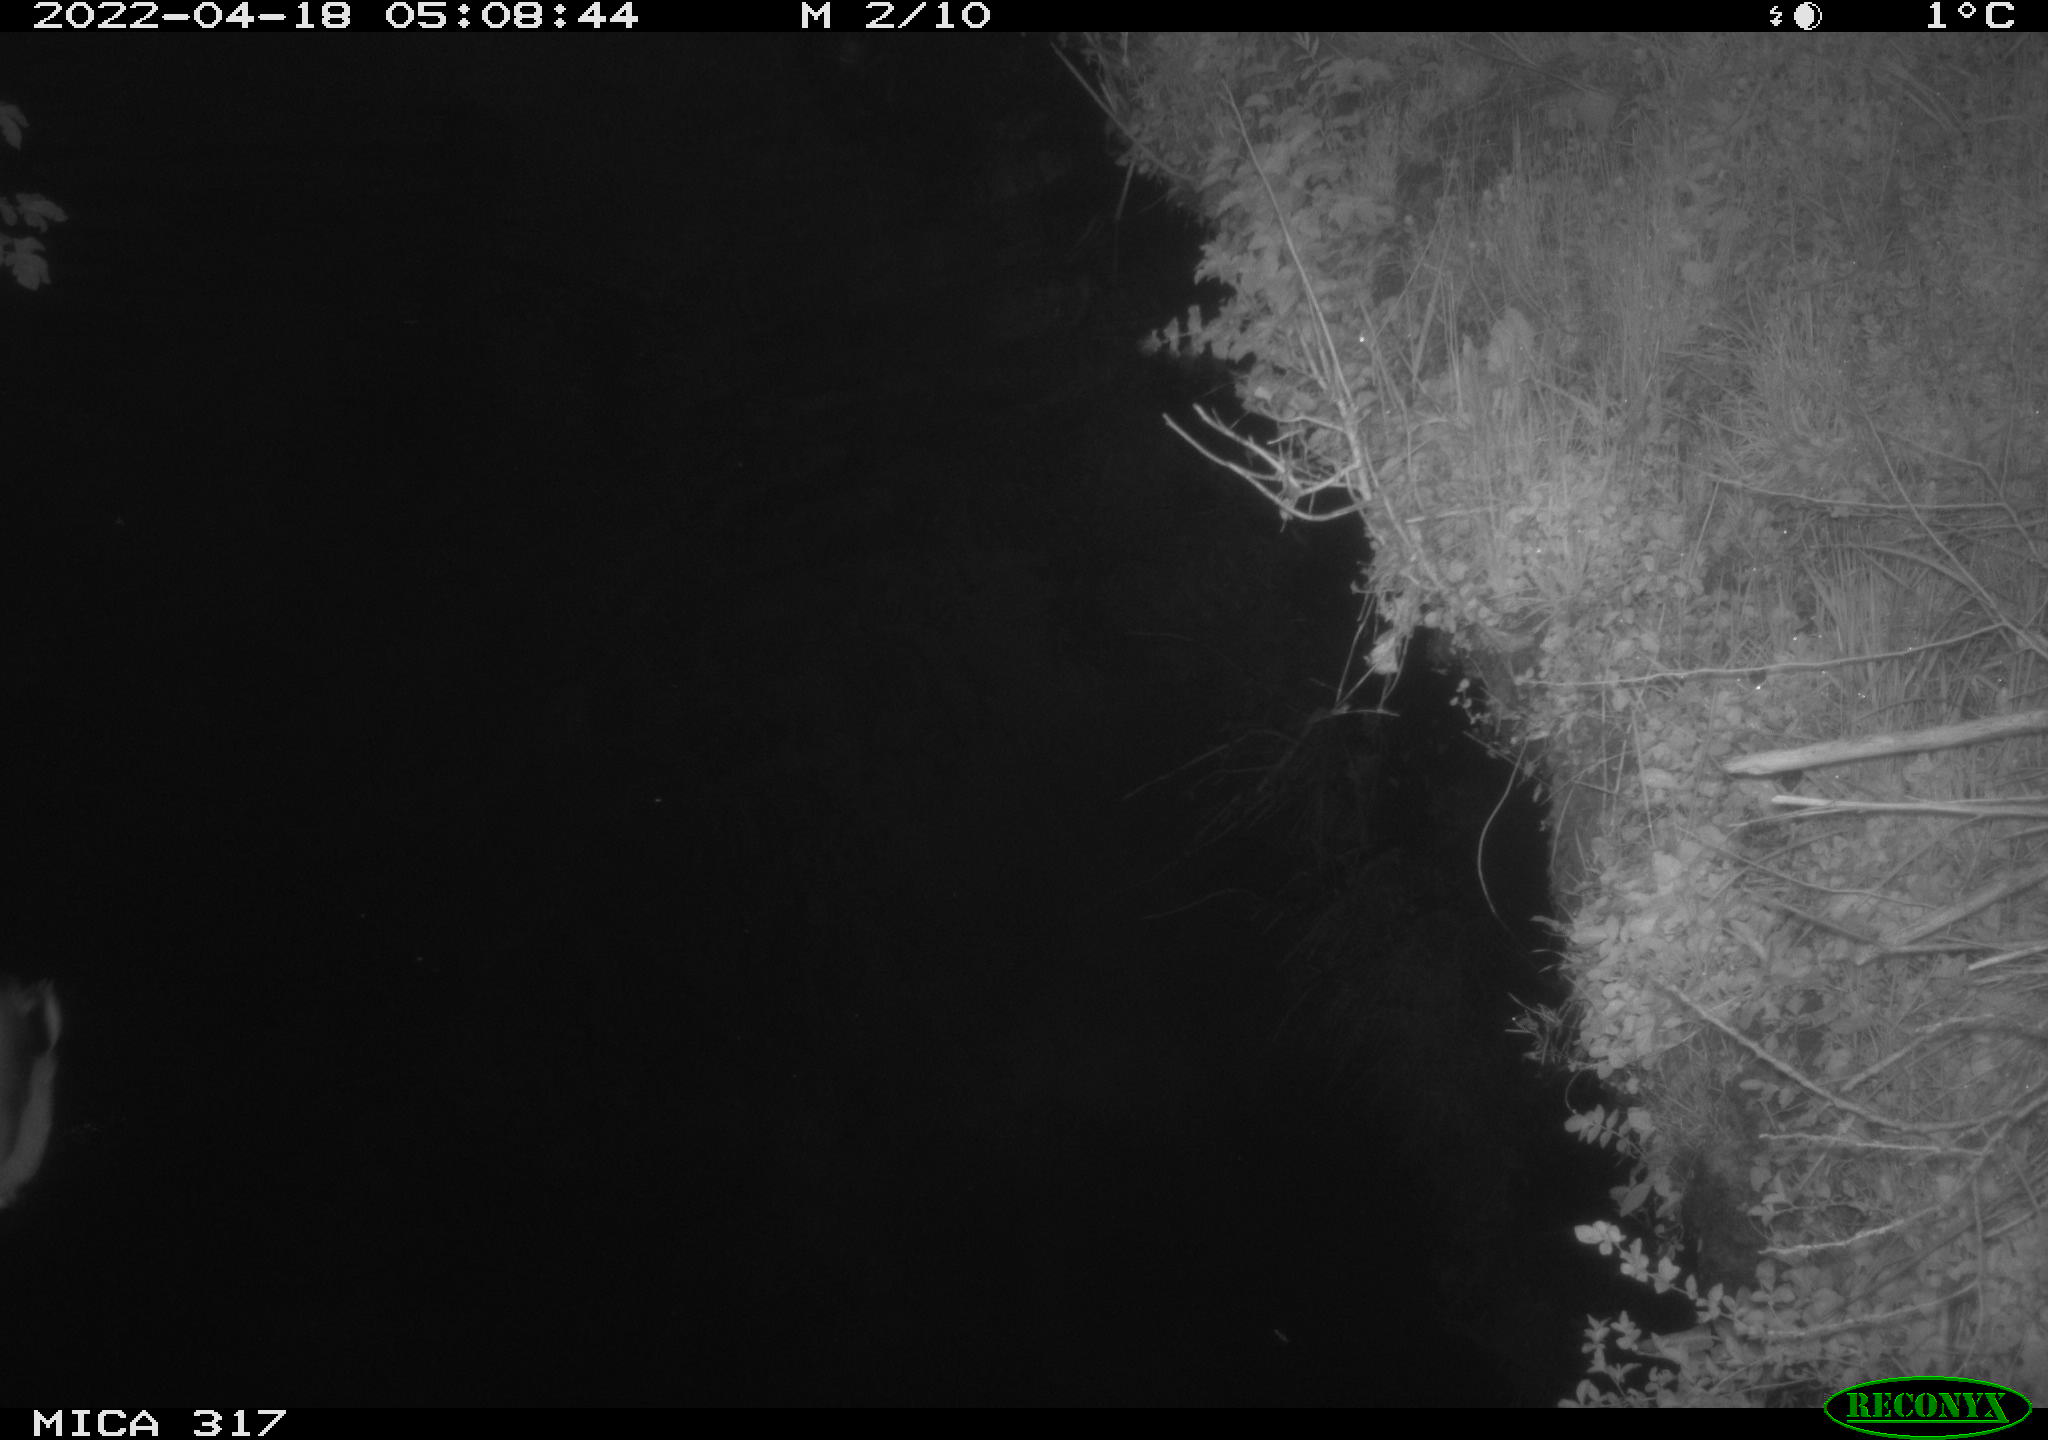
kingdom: Animalia
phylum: Chordata
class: Aves
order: Anseriformes
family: Anatidae
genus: Anas
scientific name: Anas platyrhynchos
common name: Mallard
